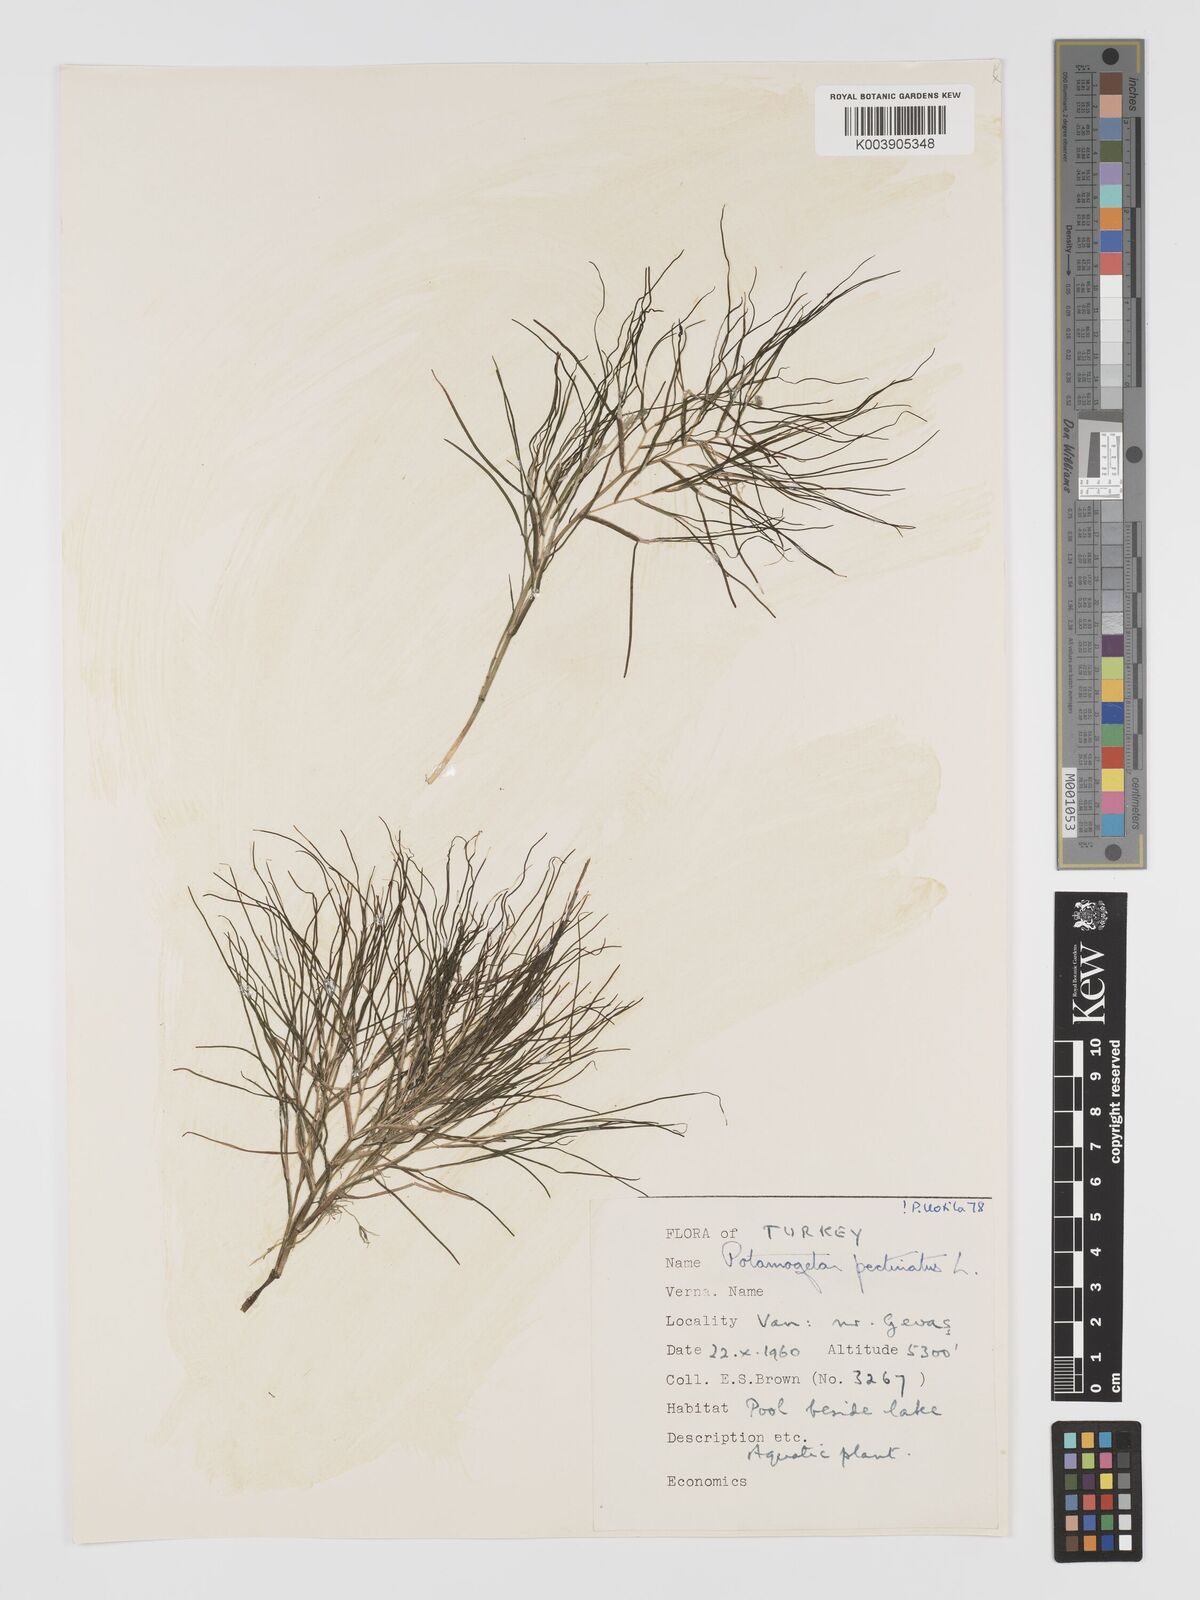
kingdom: Plantae
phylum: Tracheophyta
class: Liliopsida
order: Alismatales
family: Potamogetonaceae
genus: Stuckenia
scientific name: Stuckenia pectinata
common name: Sago pondweed
